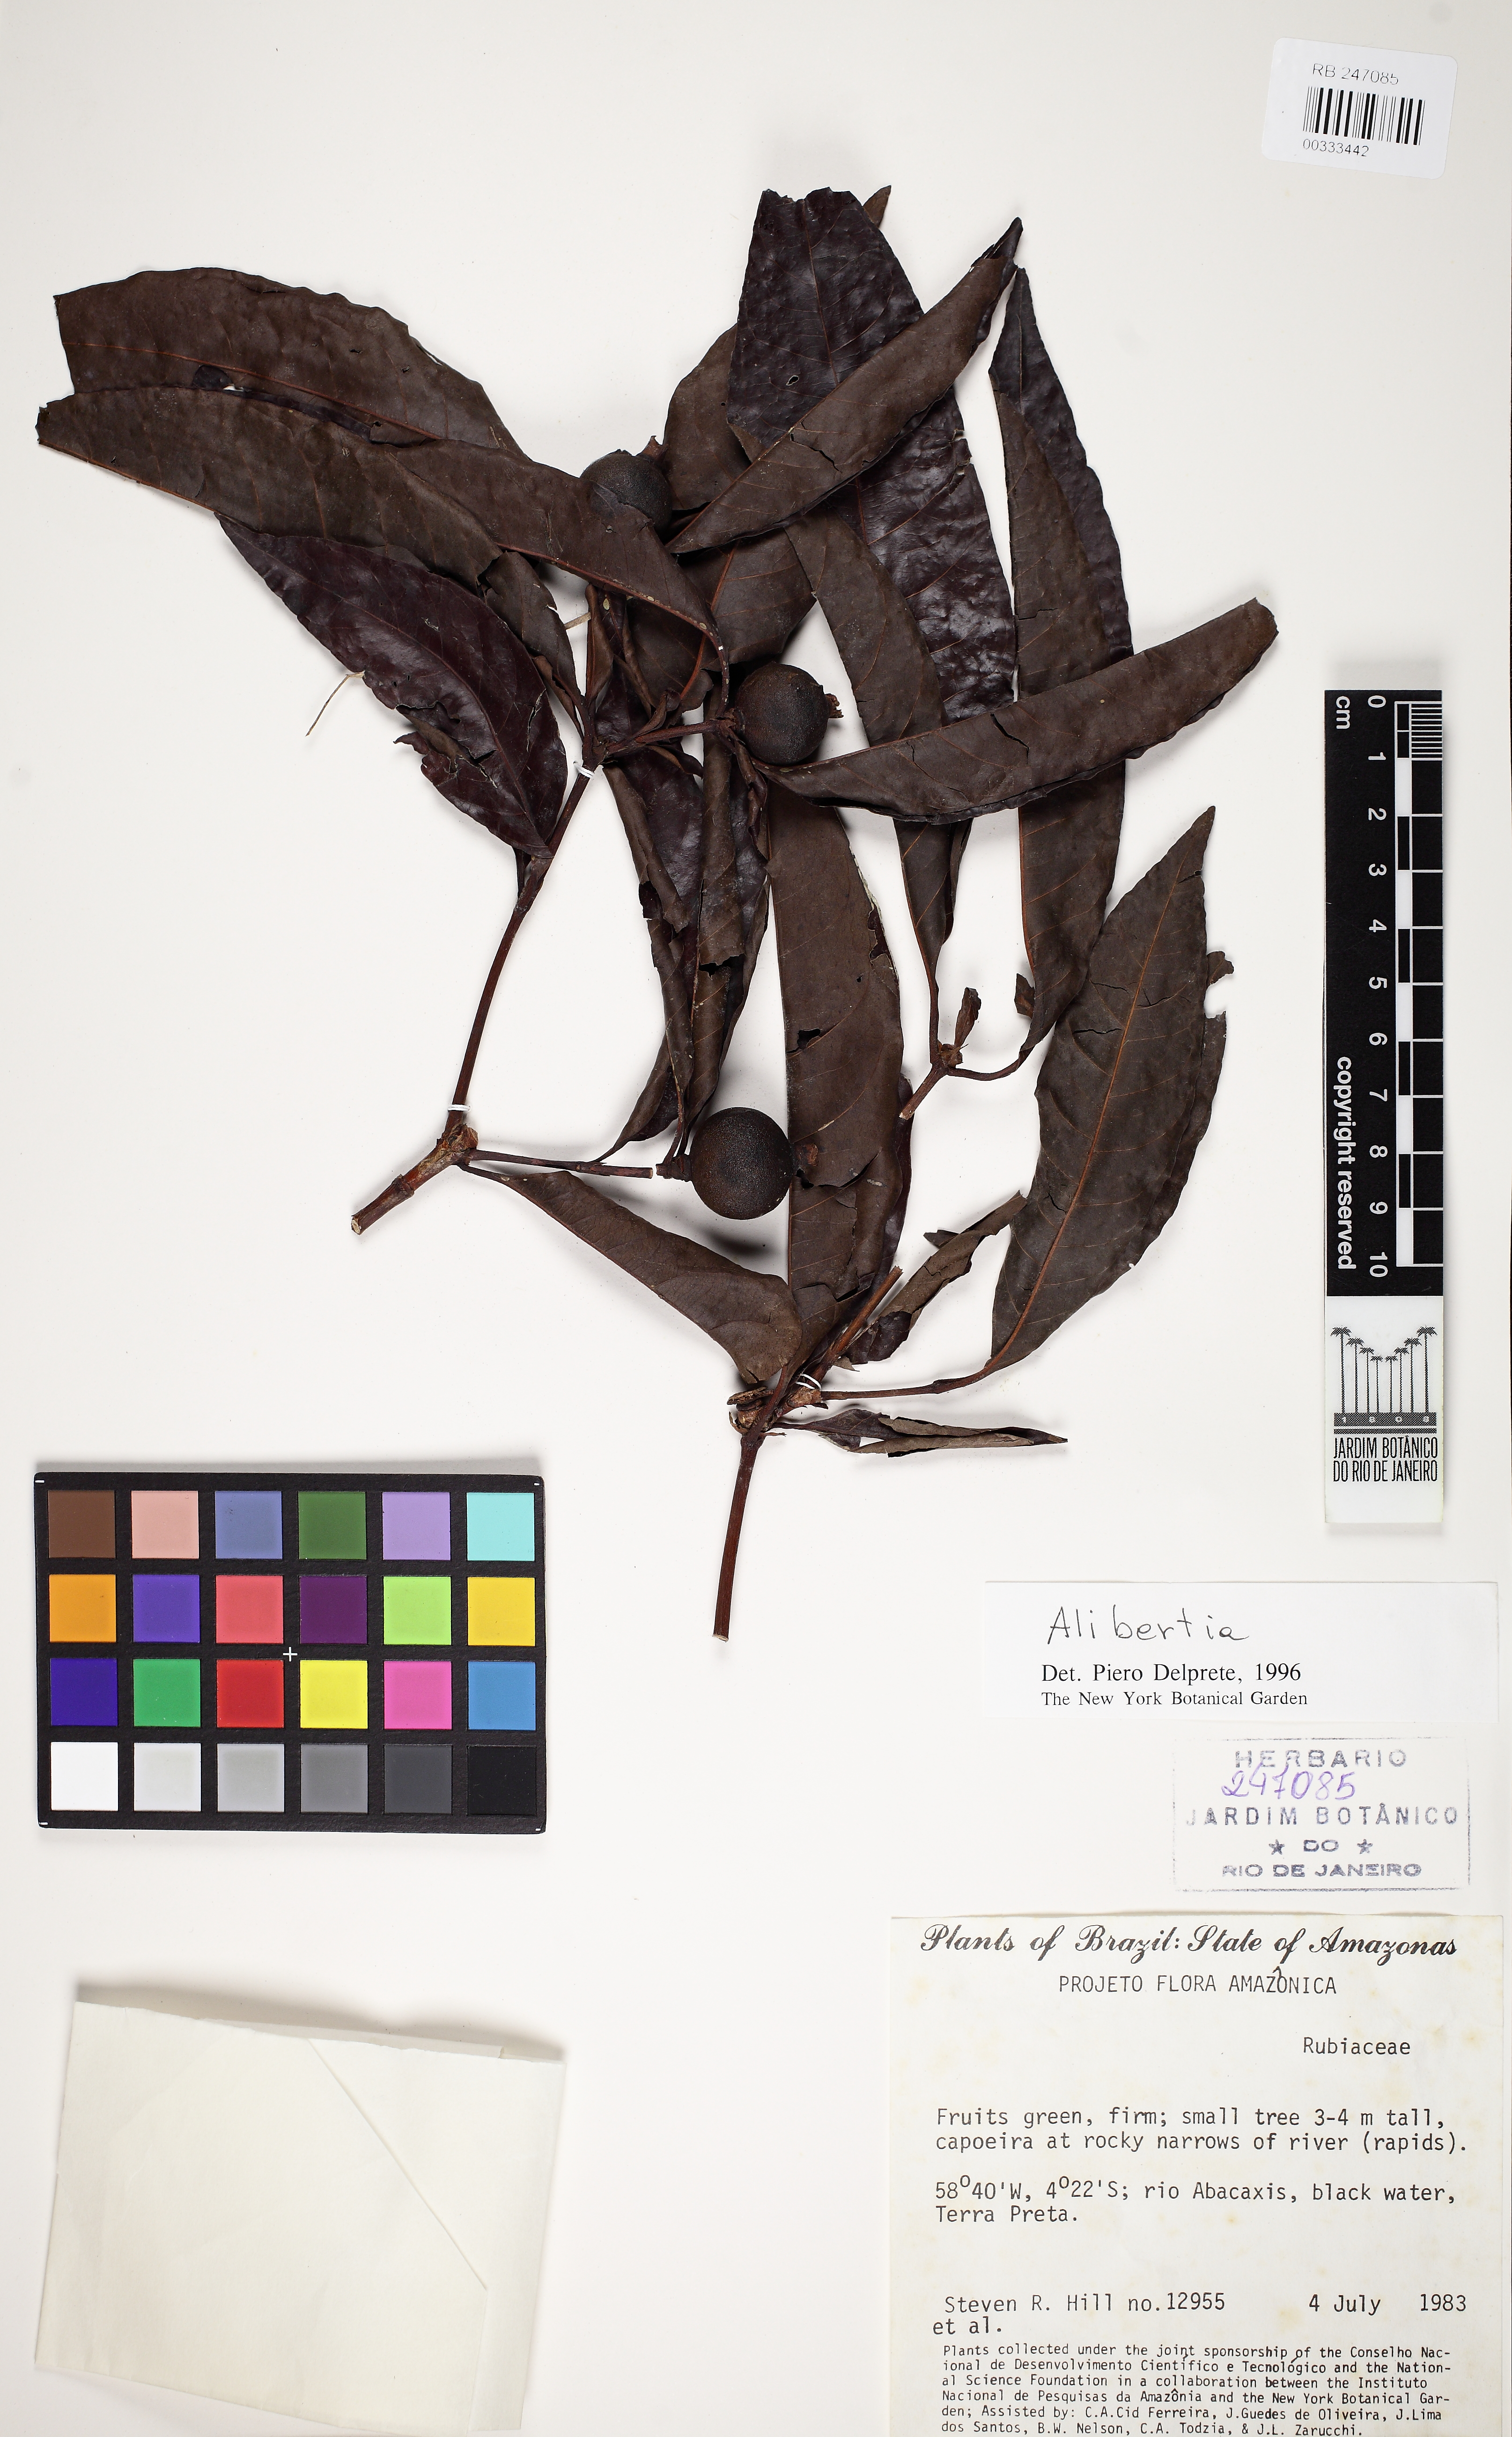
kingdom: Plantae
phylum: Tracheophyta
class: Magnoliopsida
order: Gentianales
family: Rubiaceae
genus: Alibertia
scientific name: Alibertia edulis
